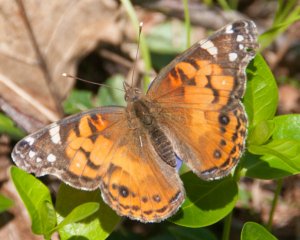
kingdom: Animalia
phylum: Arthropoda
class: Insecta
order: Lepidoptera
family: Nymphalidae
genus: Vanessa
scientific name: Vanessa virginiensis
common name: American Lady
